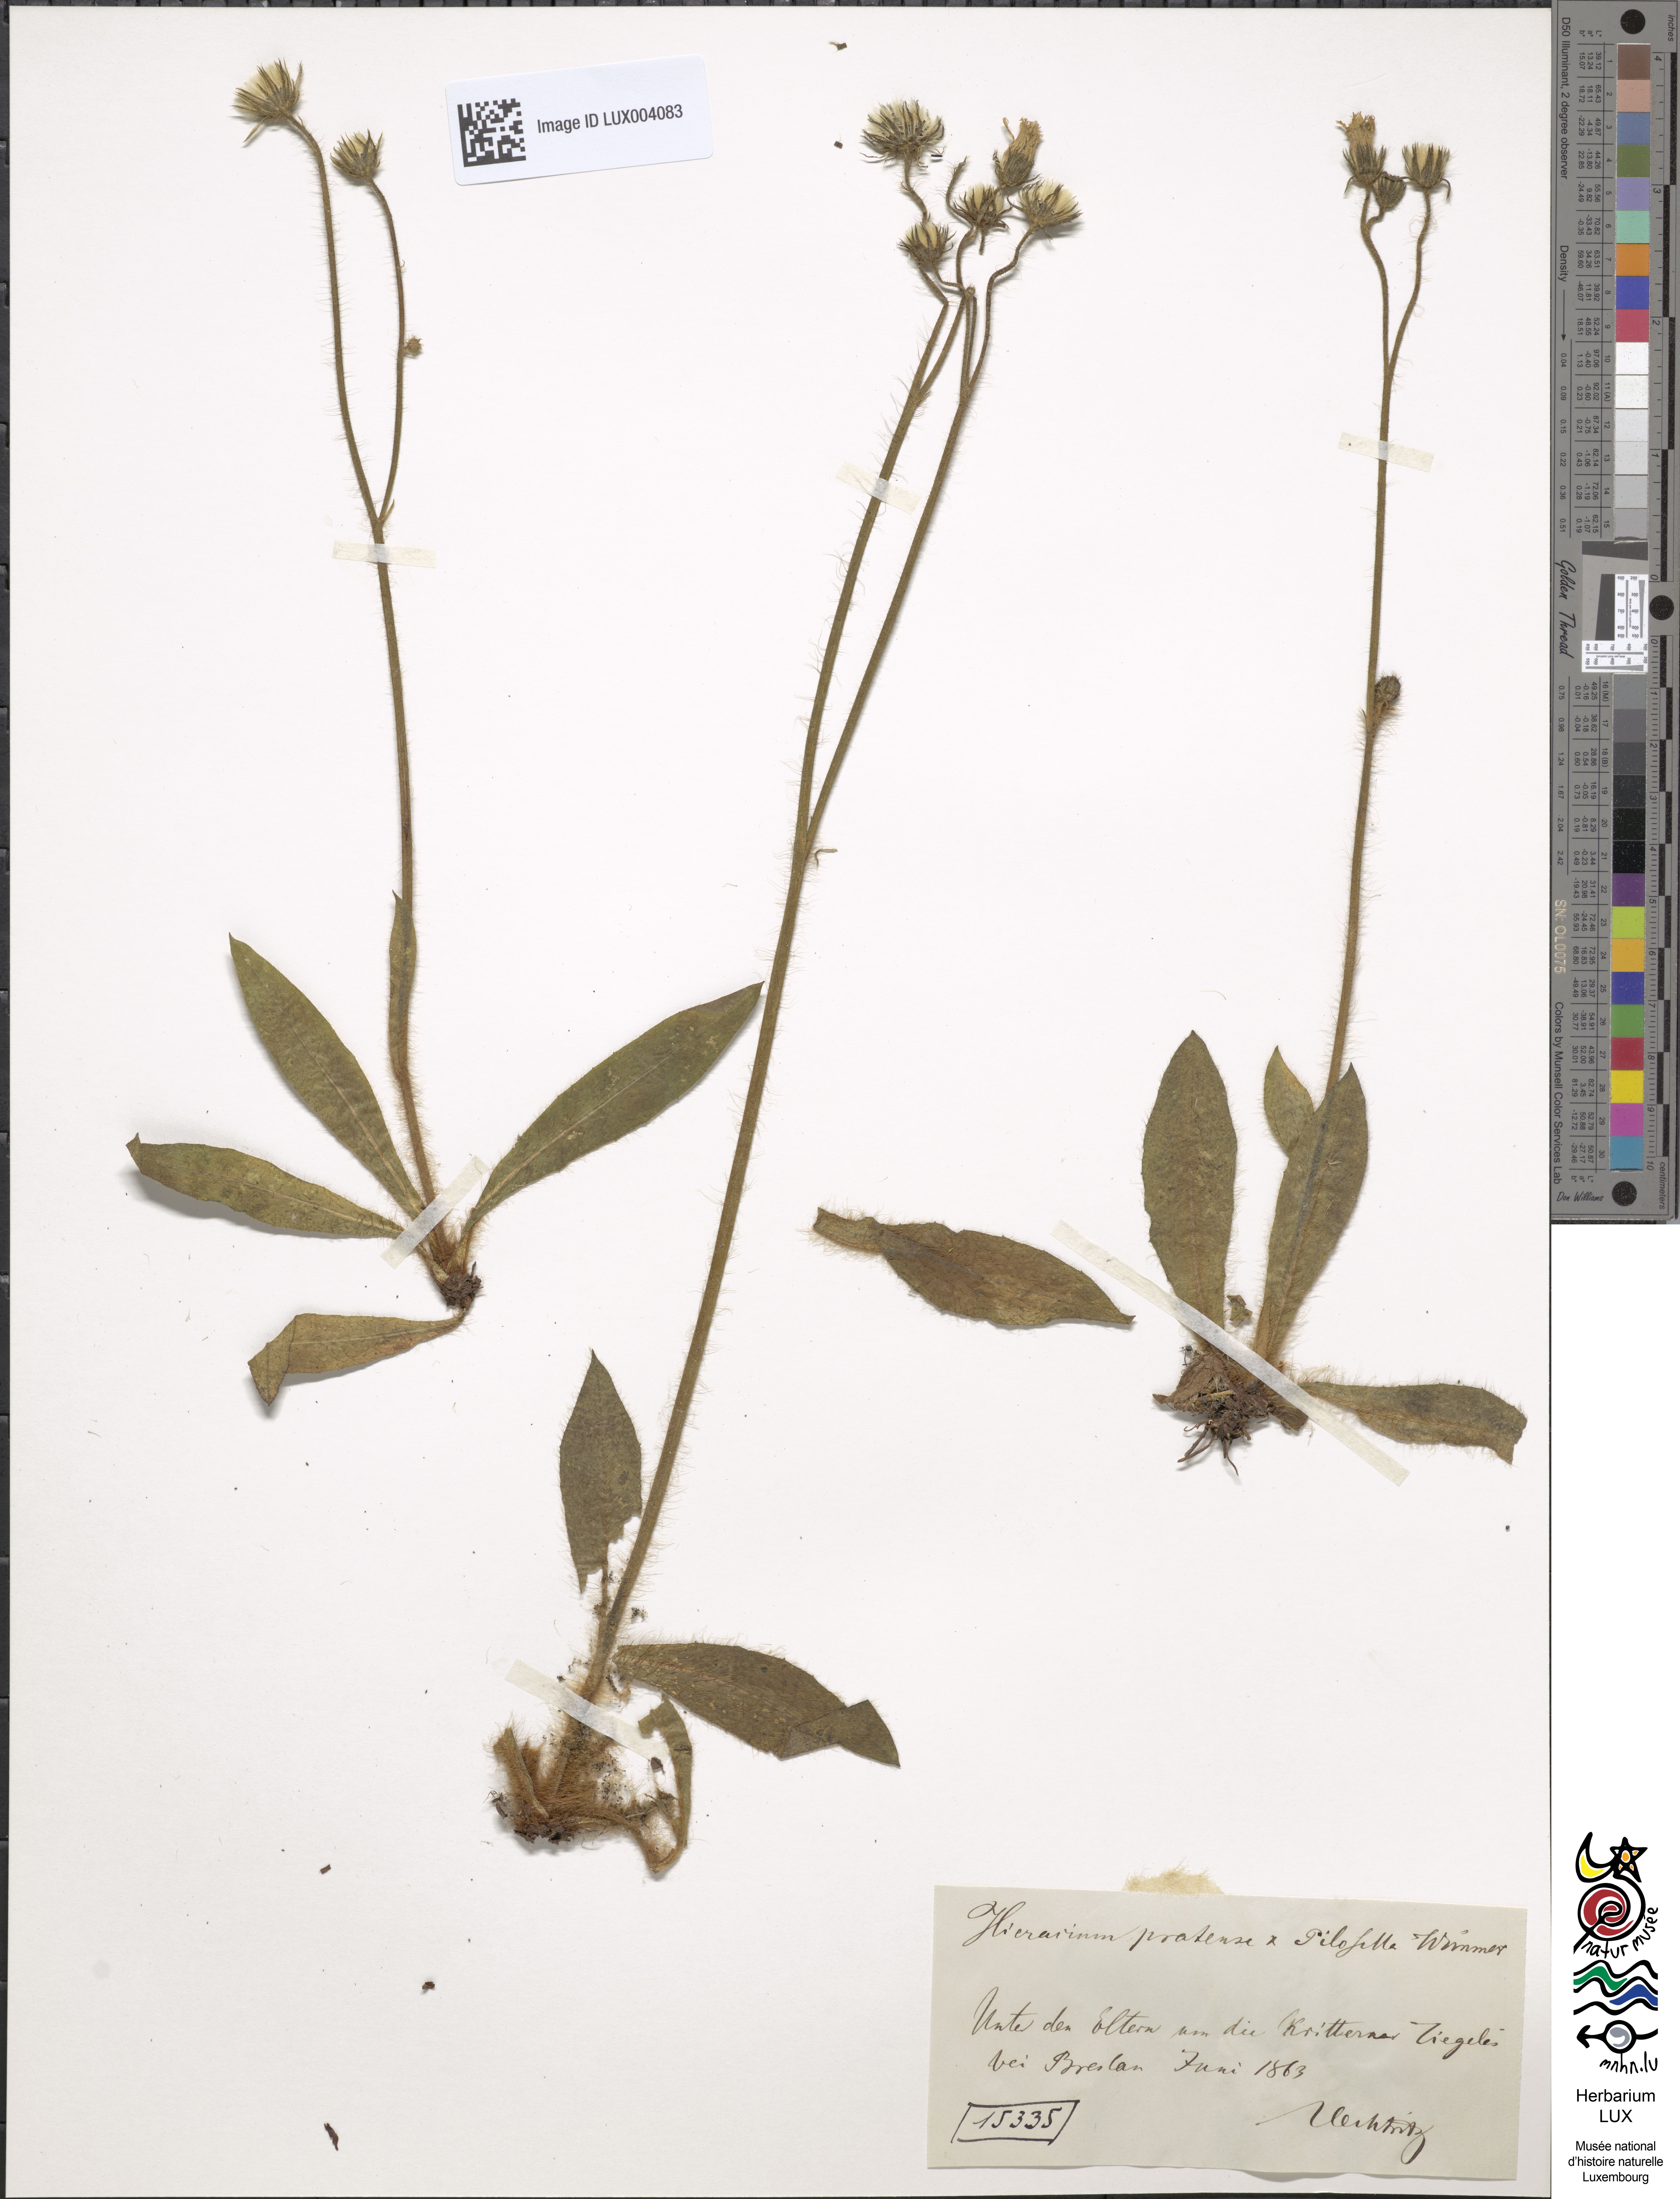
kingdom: Plantae
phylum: Tracheophyta
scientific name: Tracheophyta
